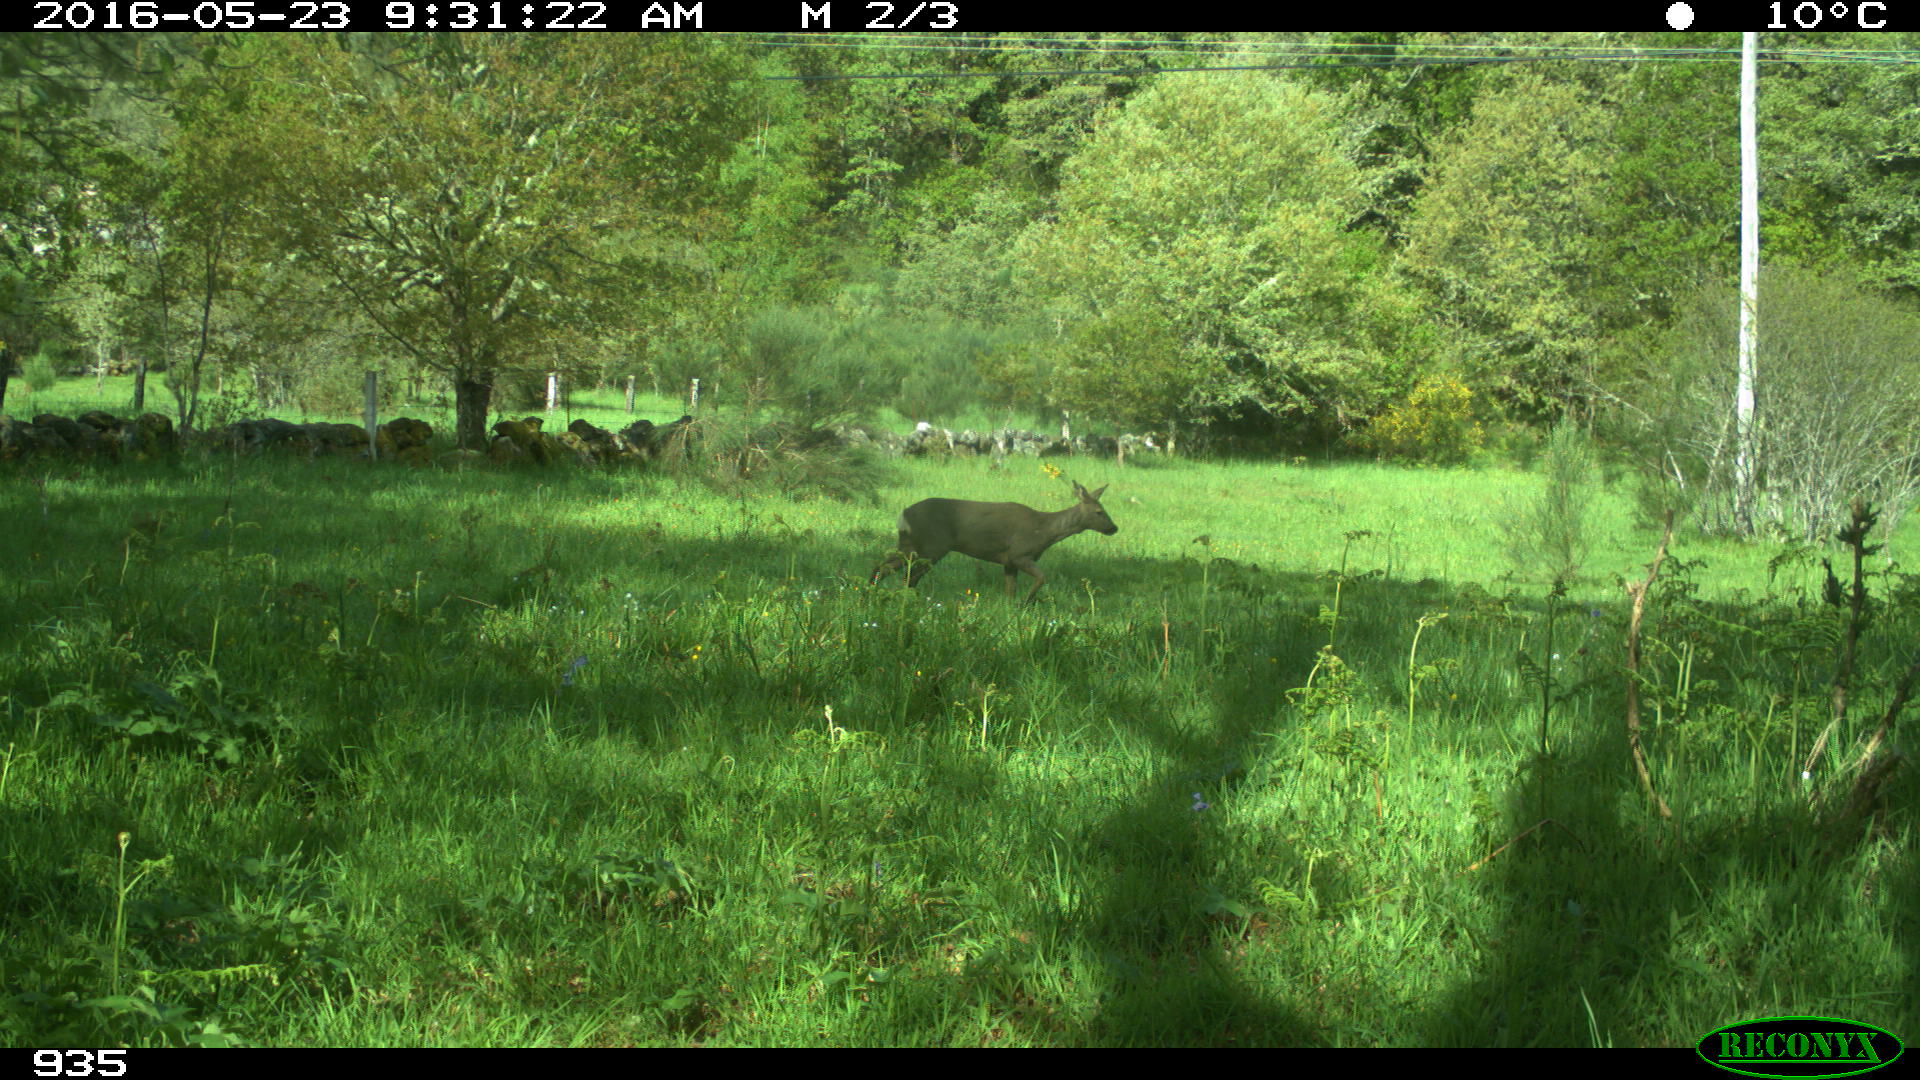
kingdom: Animalia
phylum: Chordata
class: Mammalia
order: Artiodactyla
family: Cervidae
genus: Capreolus
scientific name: Capreolus capreolus
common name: Western roe deer
